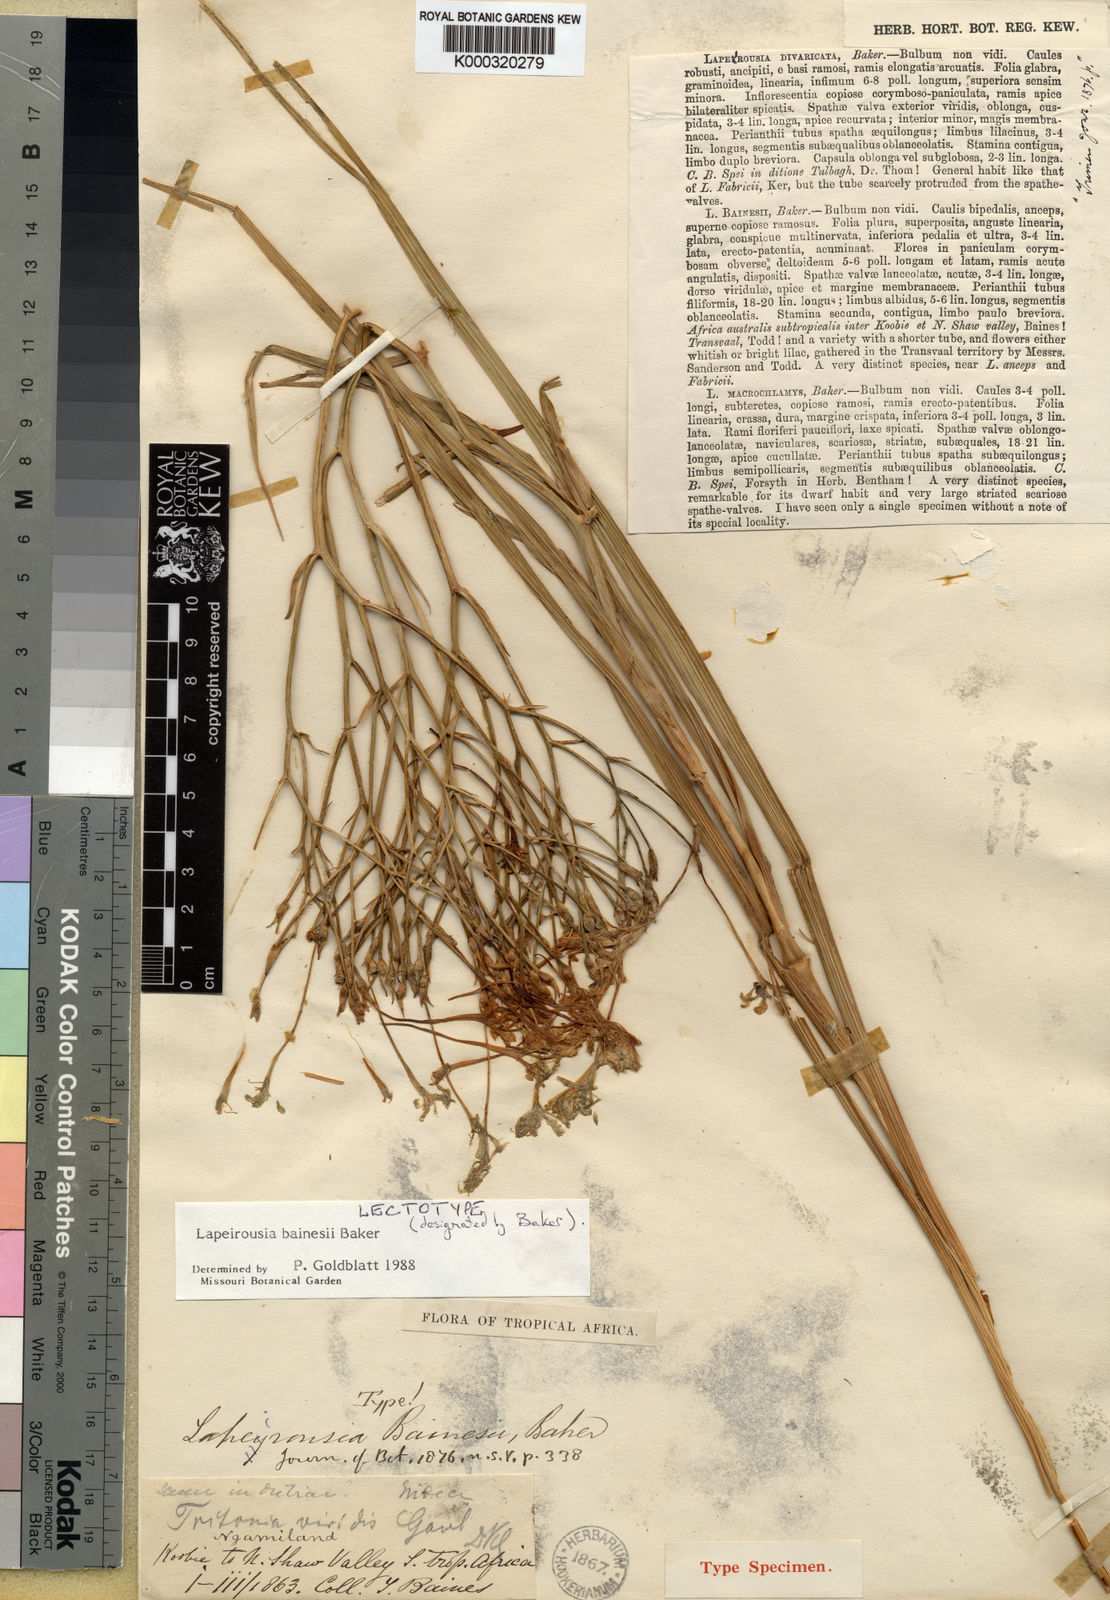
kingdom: Plantae
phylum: Tracheophyta
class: Liliopsida
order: Asparagales
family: Iridaceae
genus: Afrosolen
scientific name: Afrosolen bainesii
